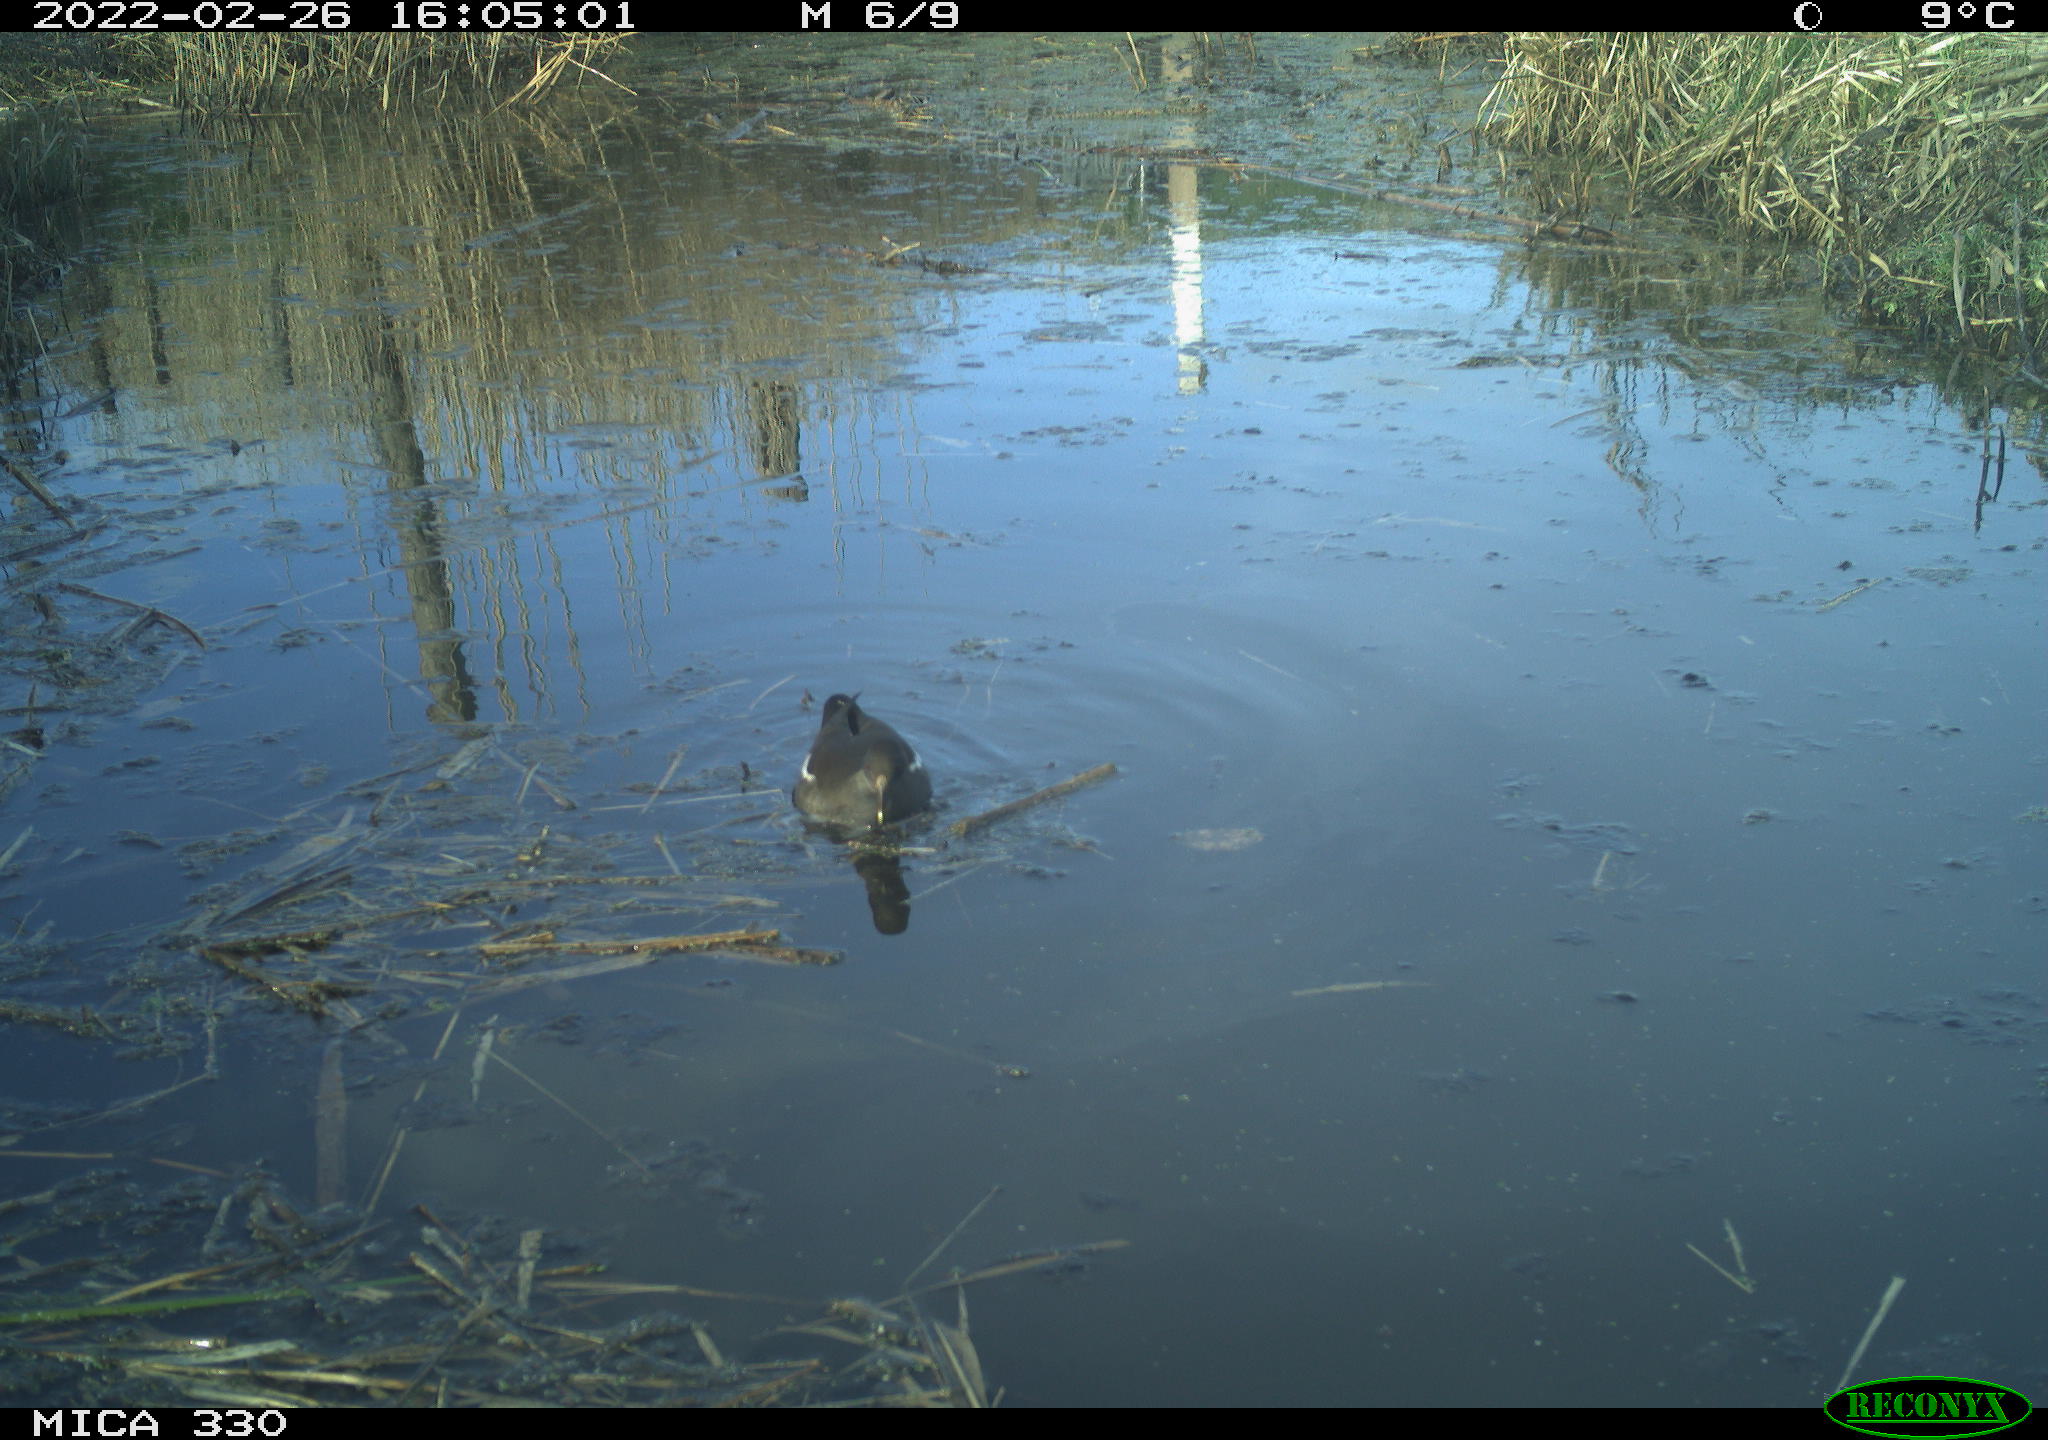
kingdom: Animalia
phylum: Chordata
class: Aves
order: Gruiformes
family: Rallidae
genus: Gallinula
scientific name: Gallinula chloropus
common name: Common moorhen
